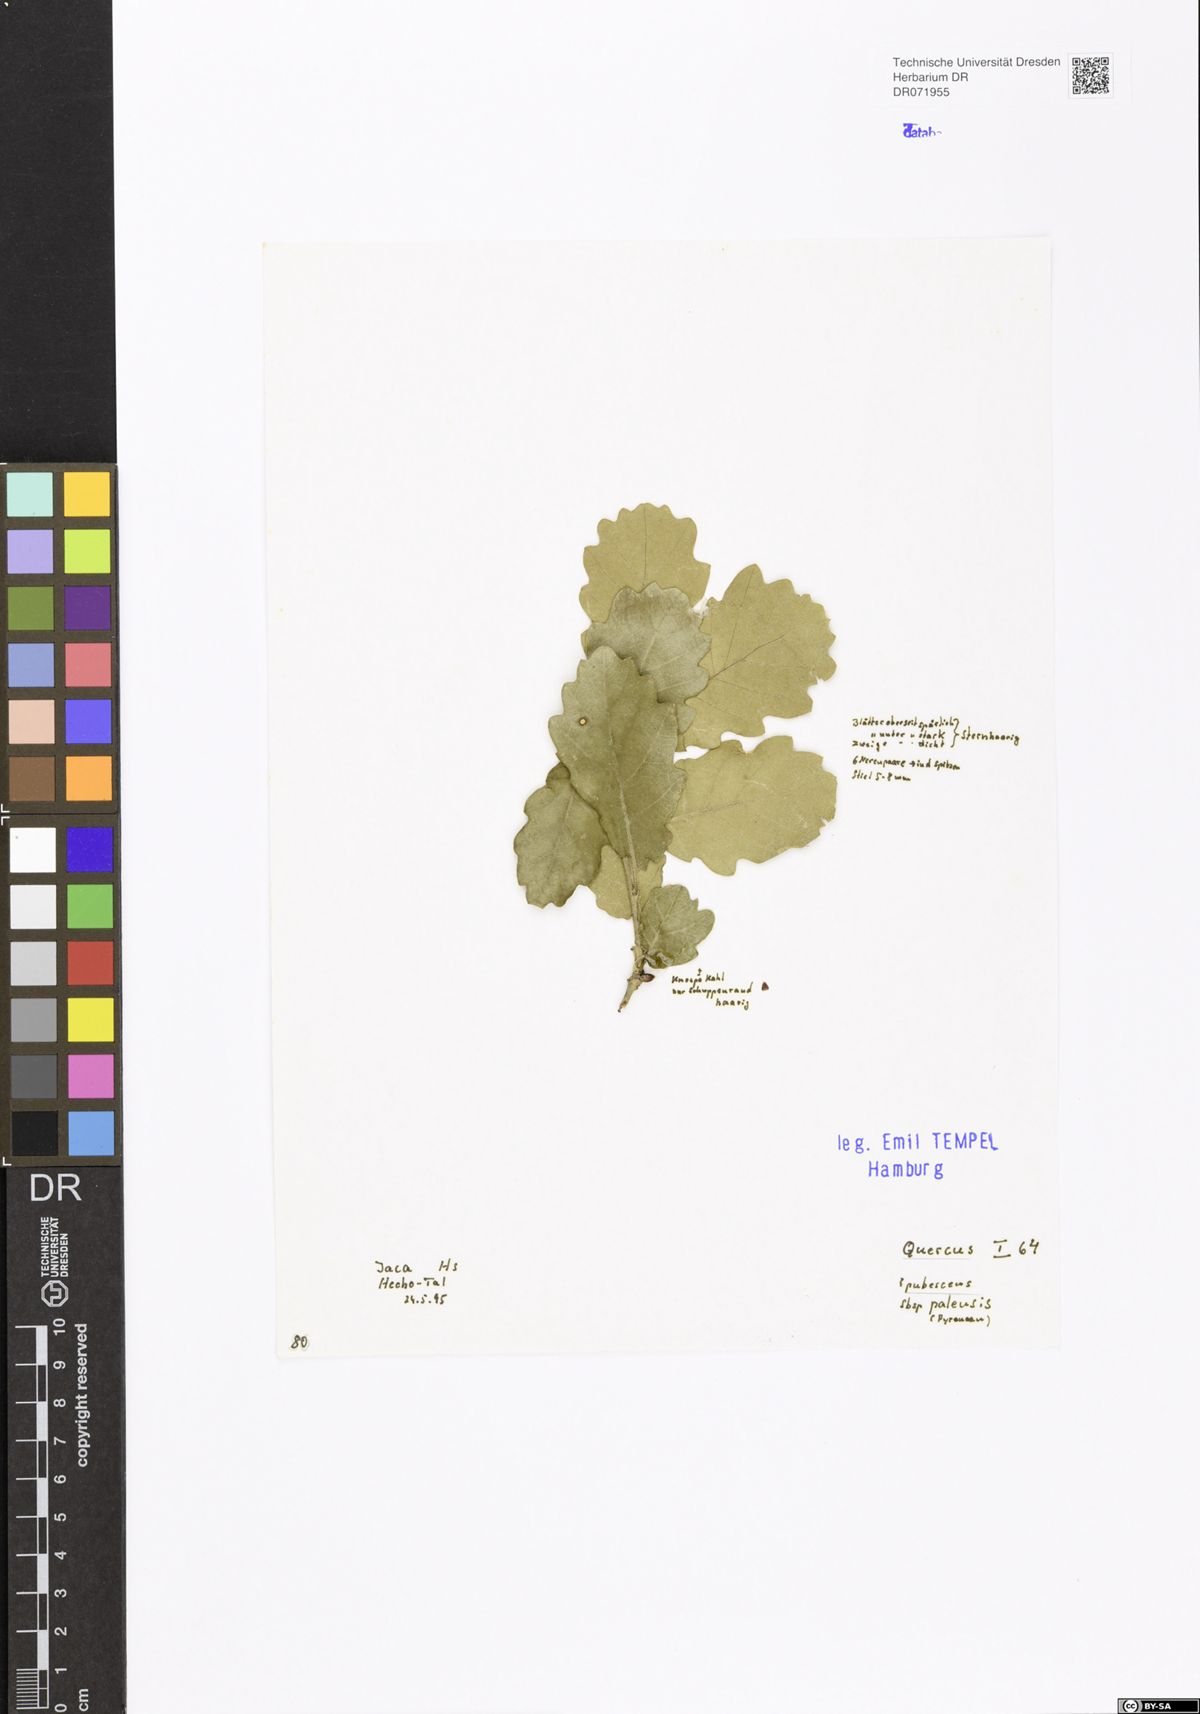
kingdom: Plantae
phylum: Tracheophyta
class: Magnoliopsida
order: Fagales
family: Fagaceae
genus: Quercus
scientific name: Quercus pubescens
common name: Downy oak
